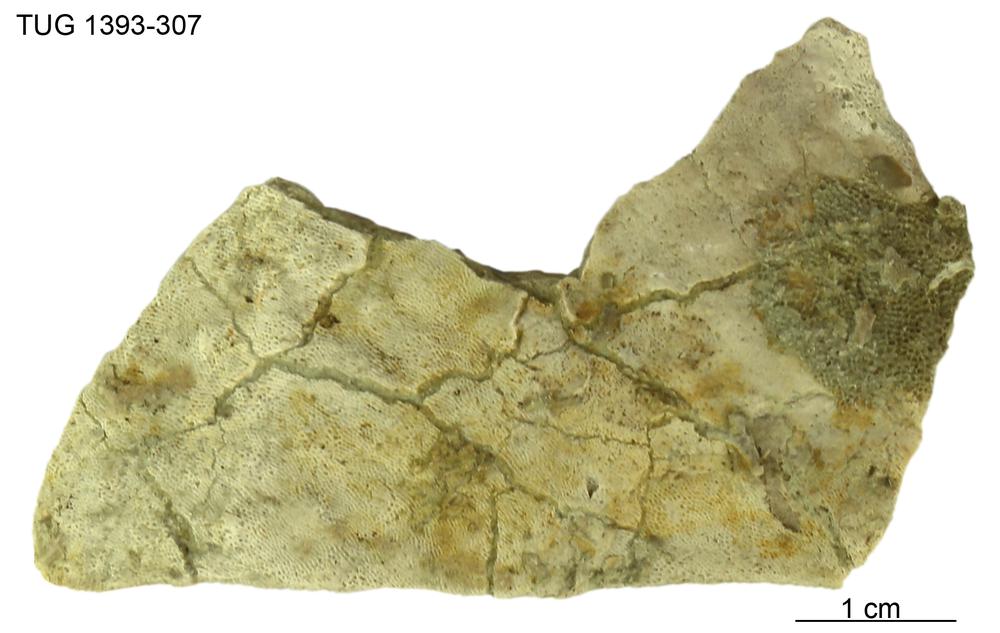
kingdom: Animalia
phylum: Bryozoa
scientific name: Bryozoa
